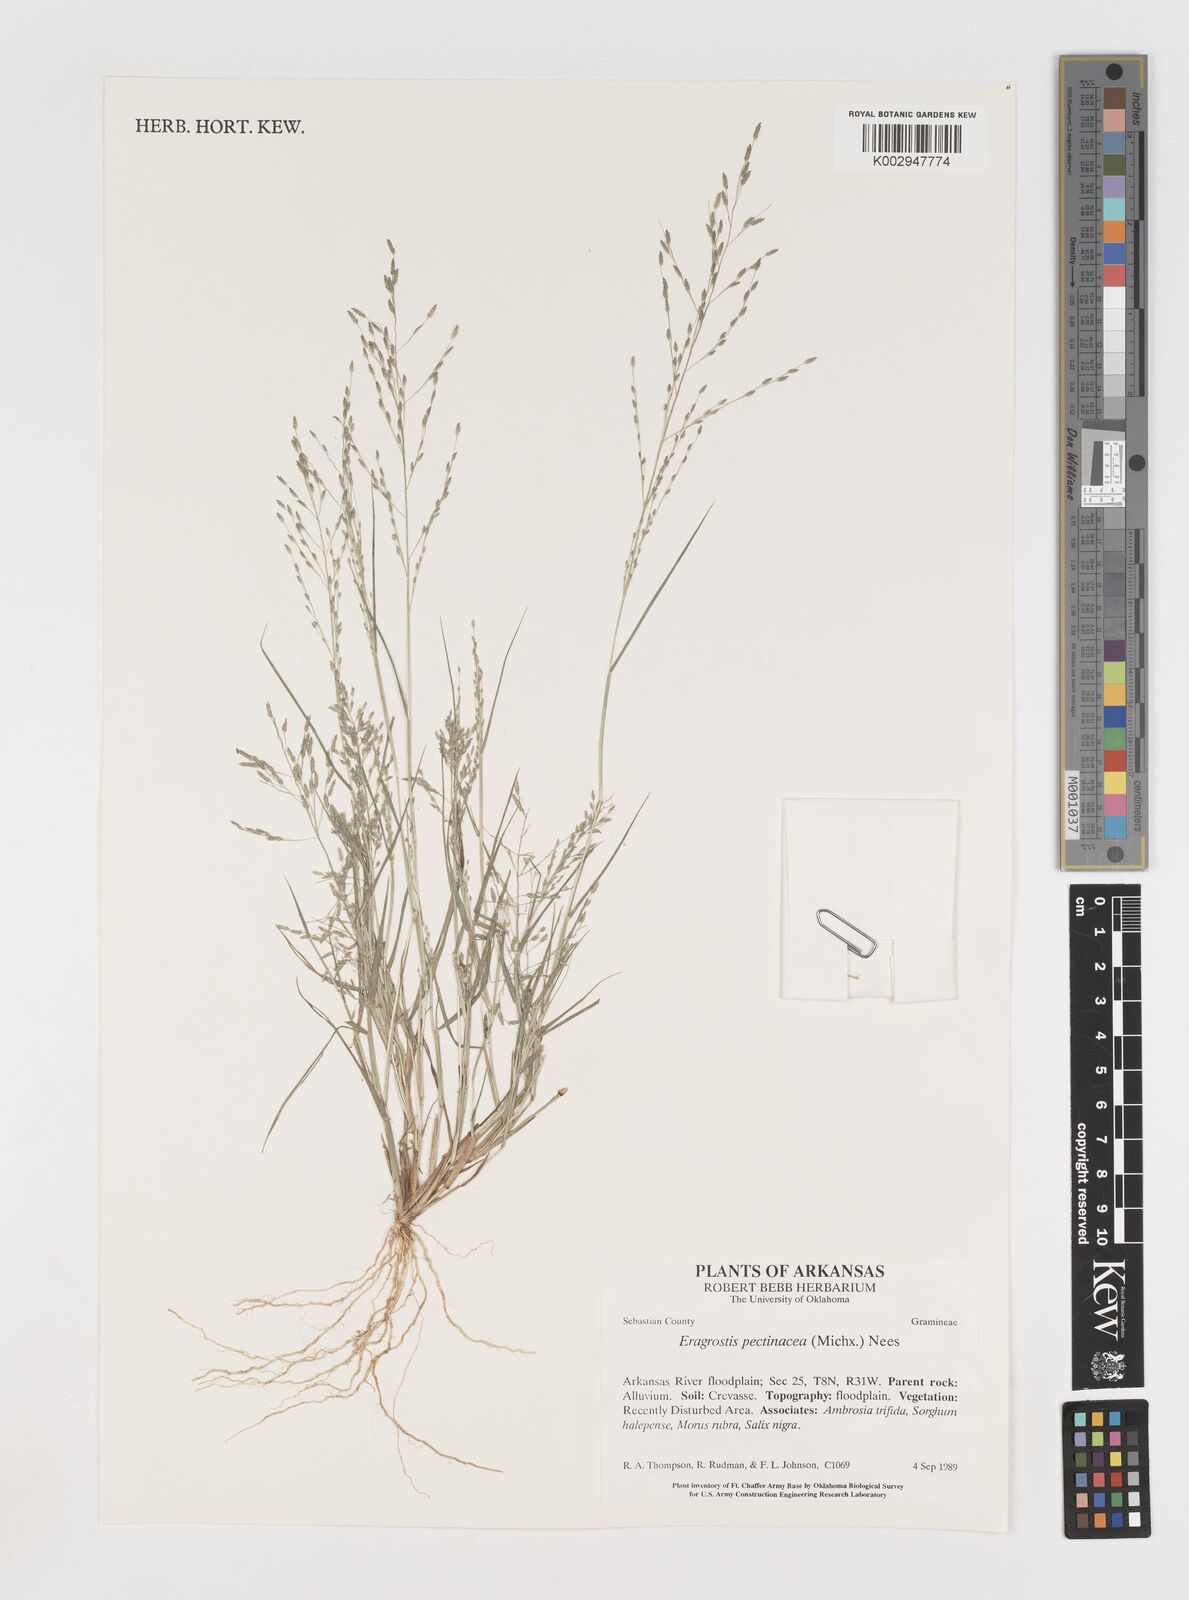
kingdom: Plantae
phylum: Tracheophyta
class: Liliopsida
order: Poales
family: Poaceae
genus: Eragrostis
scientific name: Eragrostis pectinacea
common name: Tufted lovegrass
